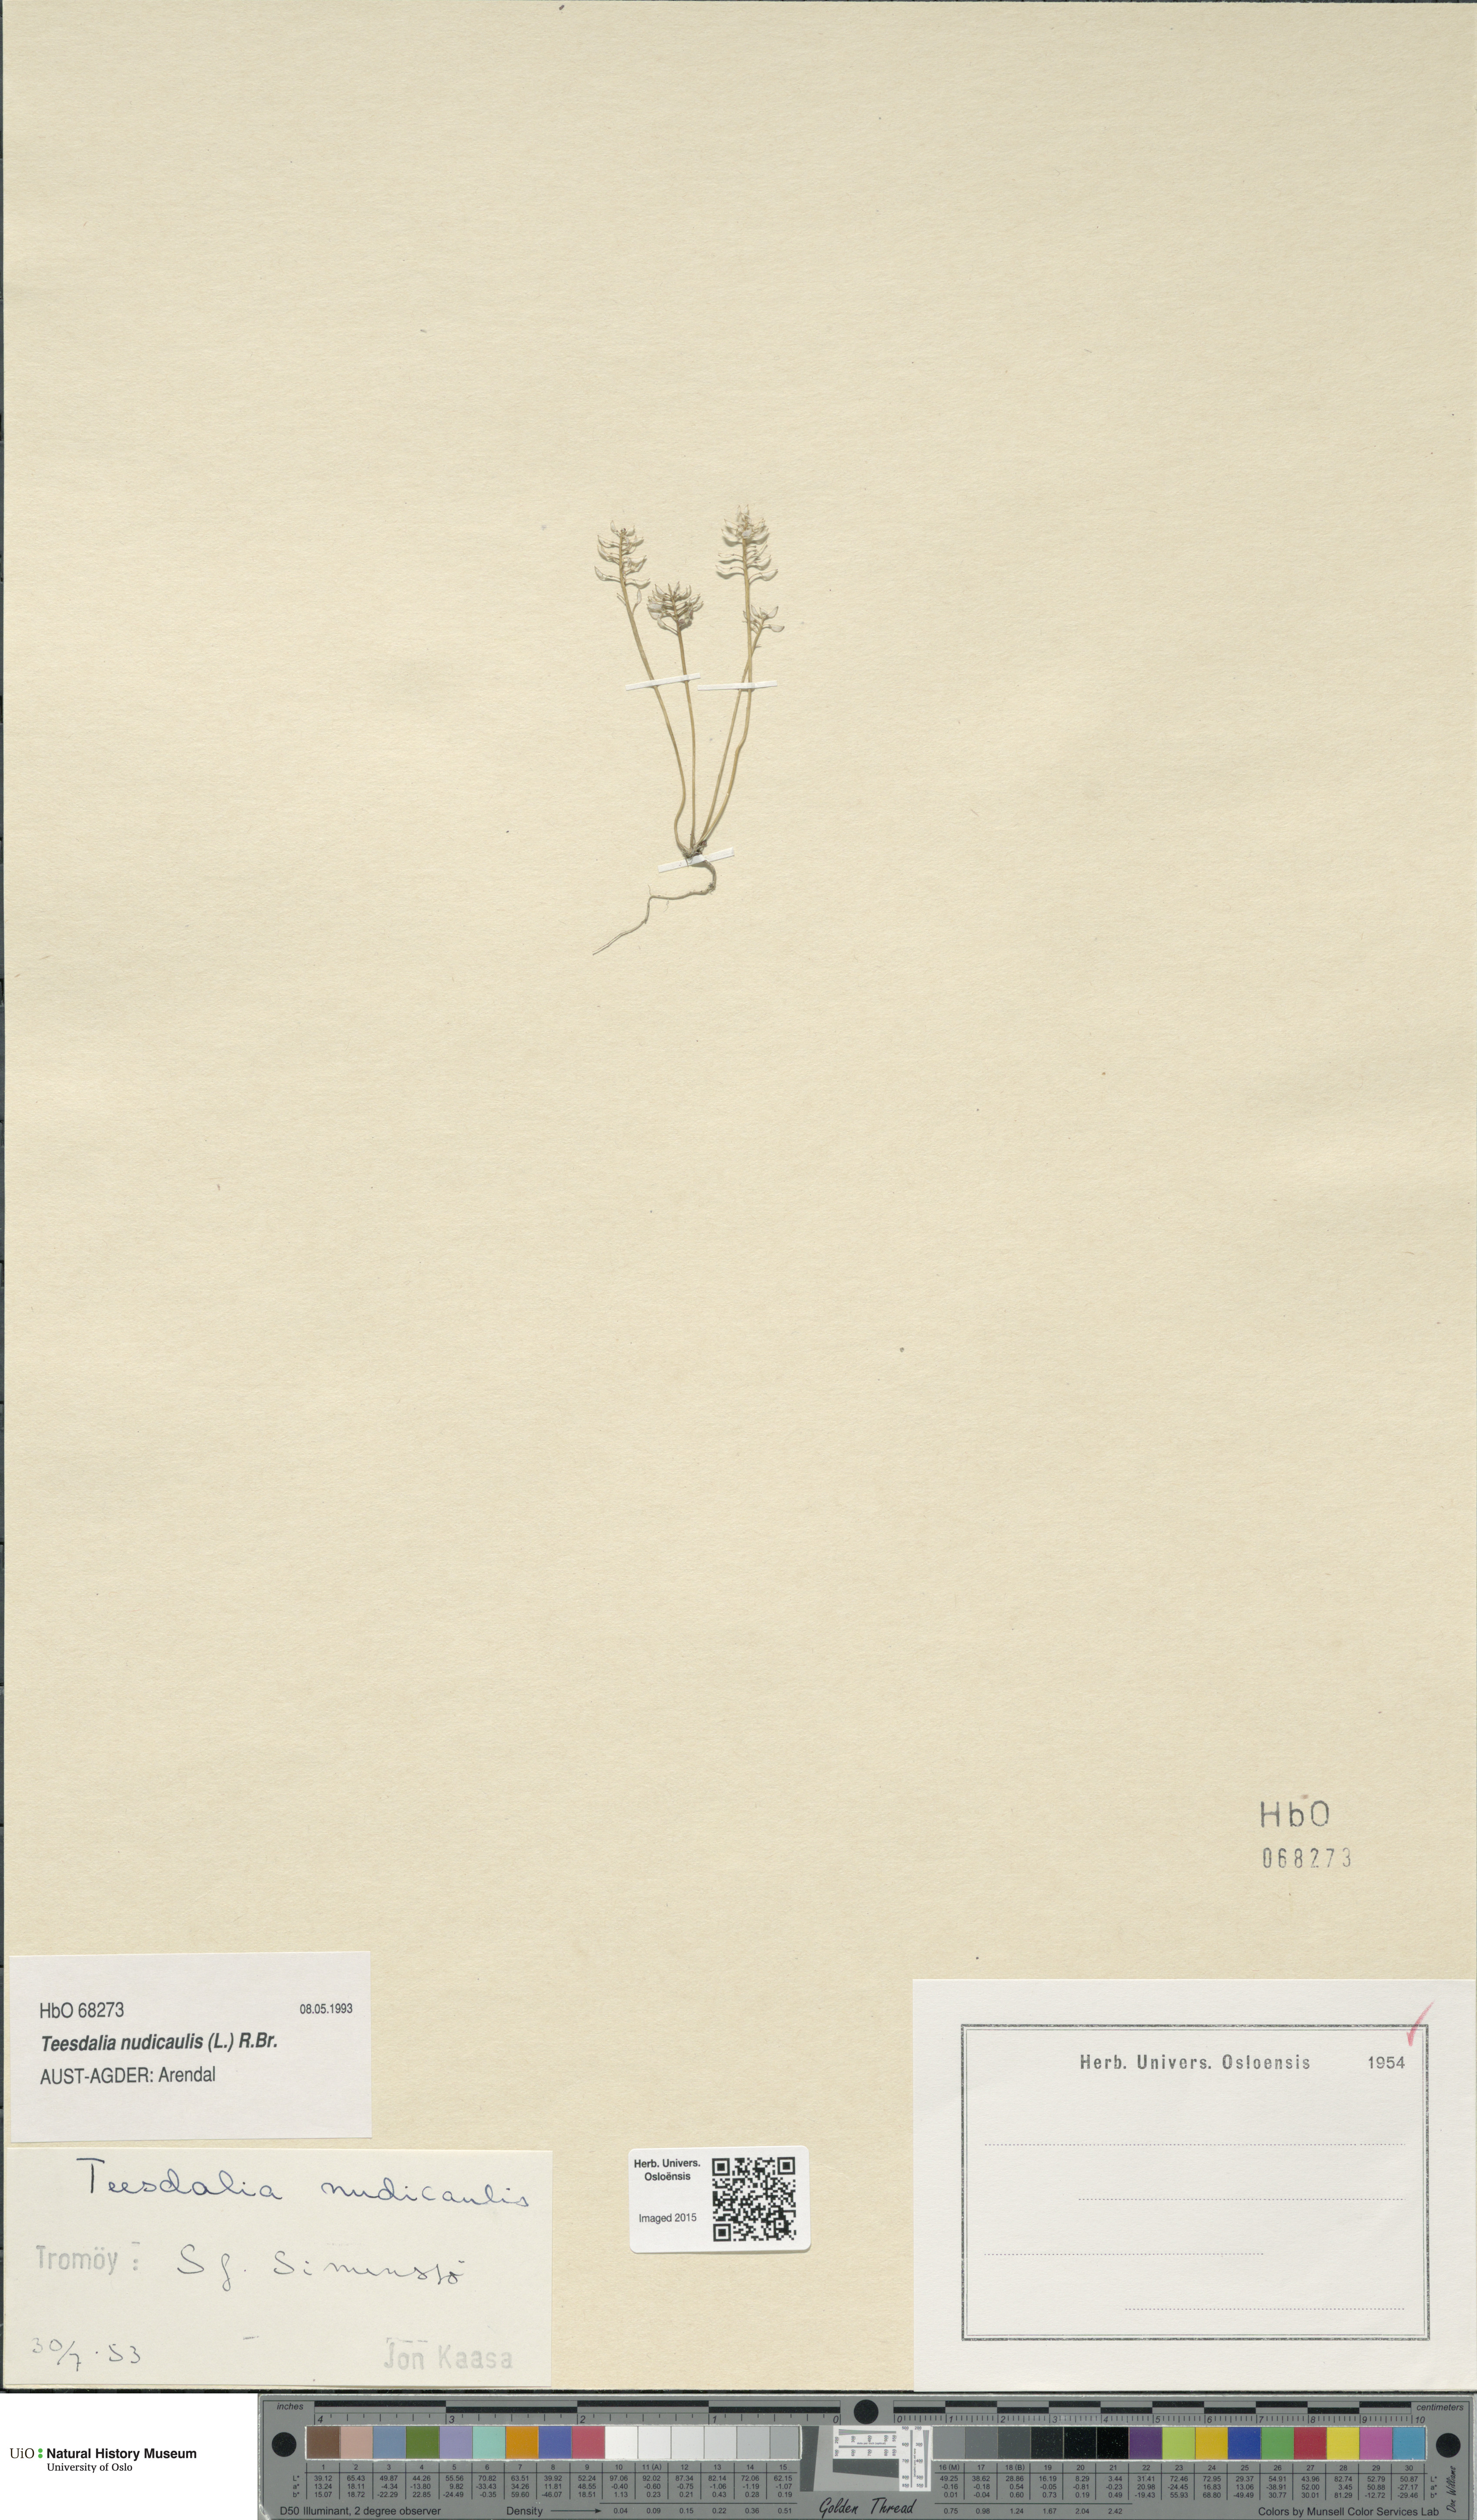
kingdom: Plantae
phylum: Tracheophyta
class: Magnoliopsida
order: Brassicales
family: Brassicaceae
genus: Teesdalia
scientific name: Teesdalia nudicaulis
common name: Shepherd's cress
